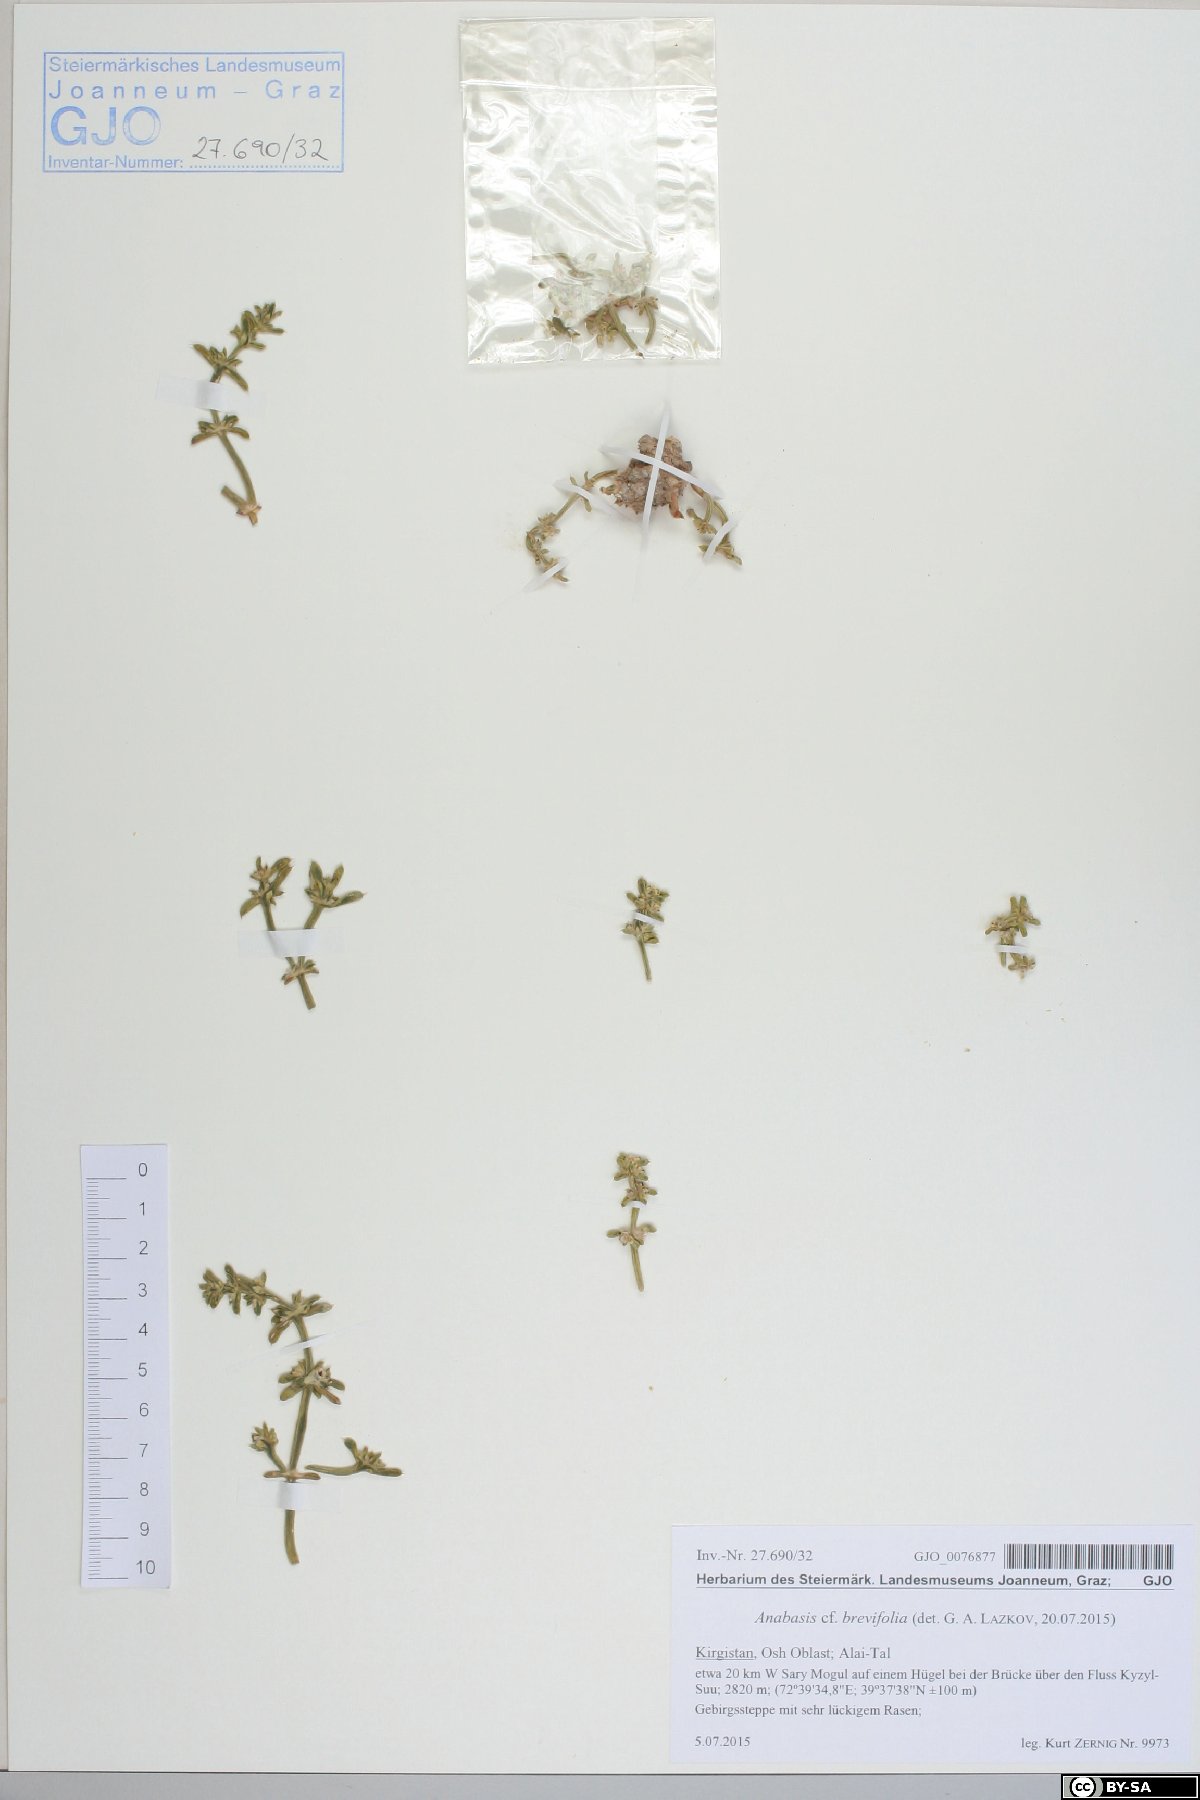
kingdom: Plantae
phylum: Tracheophyta
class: Magnoliopsida
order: Caryophyllales
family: Amaranthaceae
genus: Anabasis
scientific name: Anabasis brevifolia
